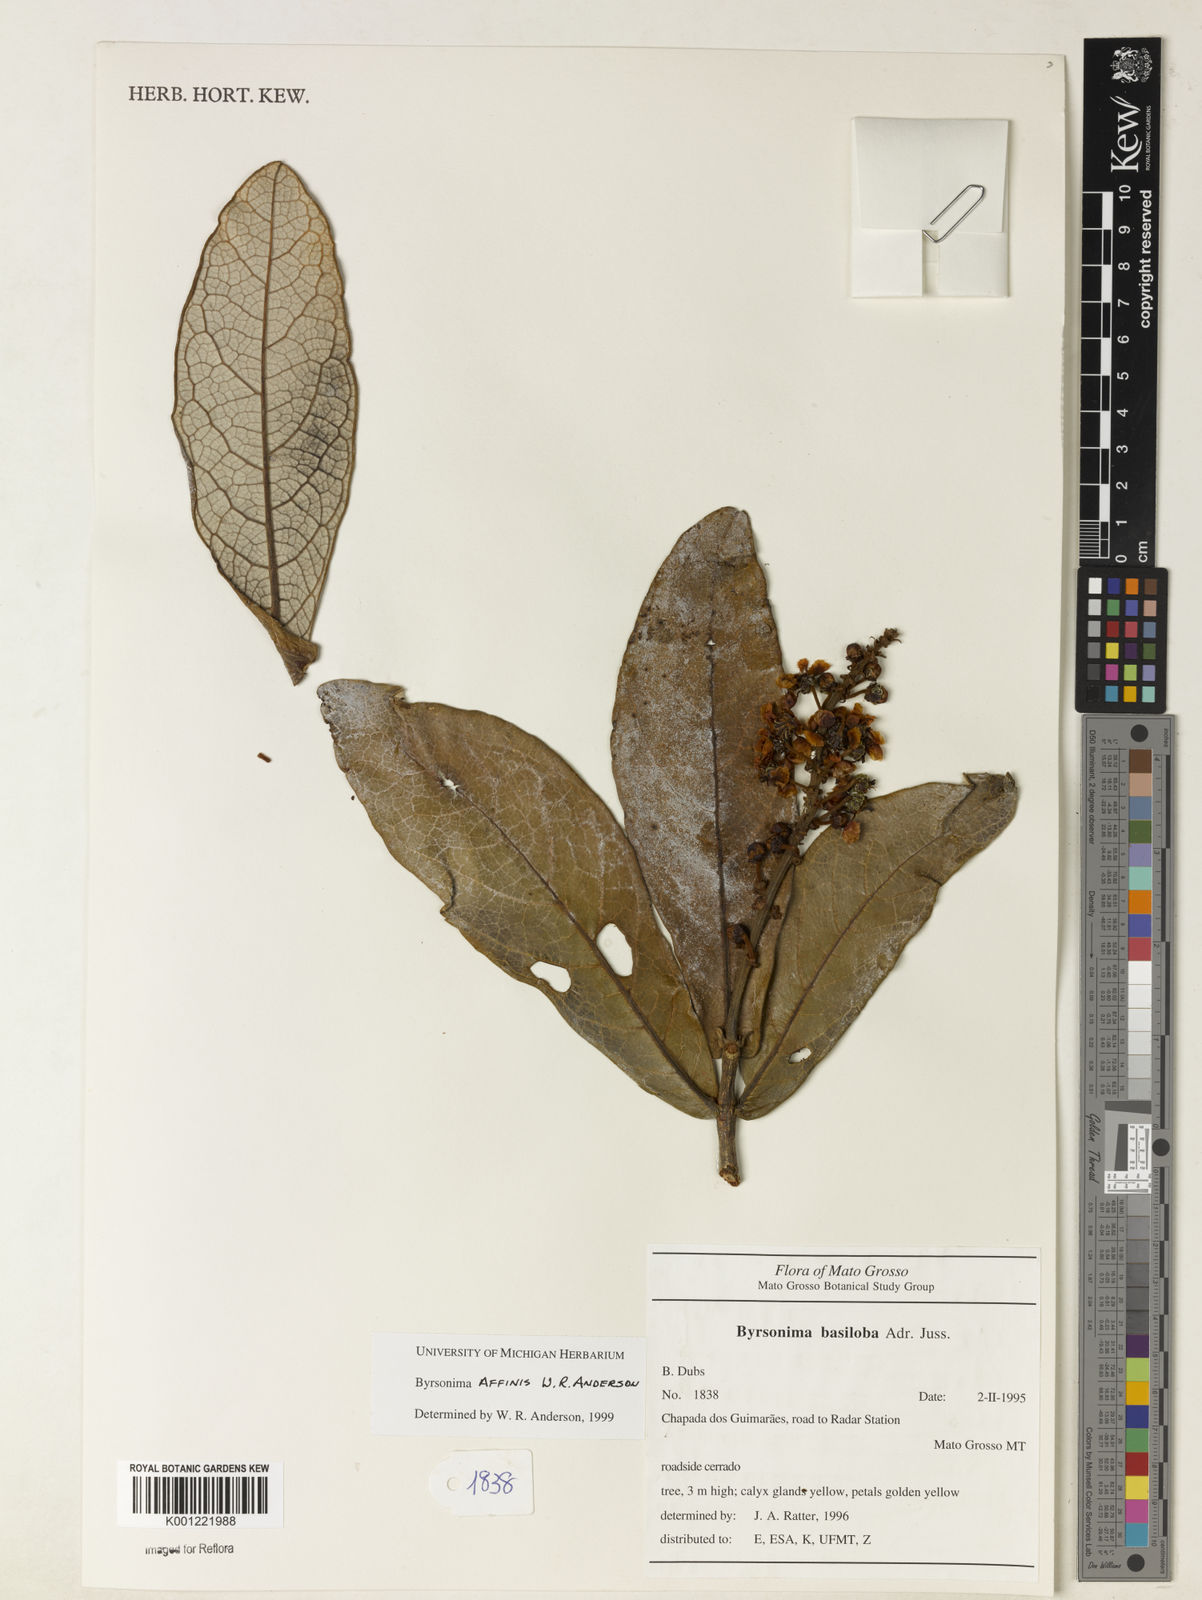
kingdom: Plantae
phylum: Tracheophyta
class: Magnoliopsida
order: Malpighiales
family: Malpighiaceae
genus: Byrsonima
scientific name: Byrsonima affinis
